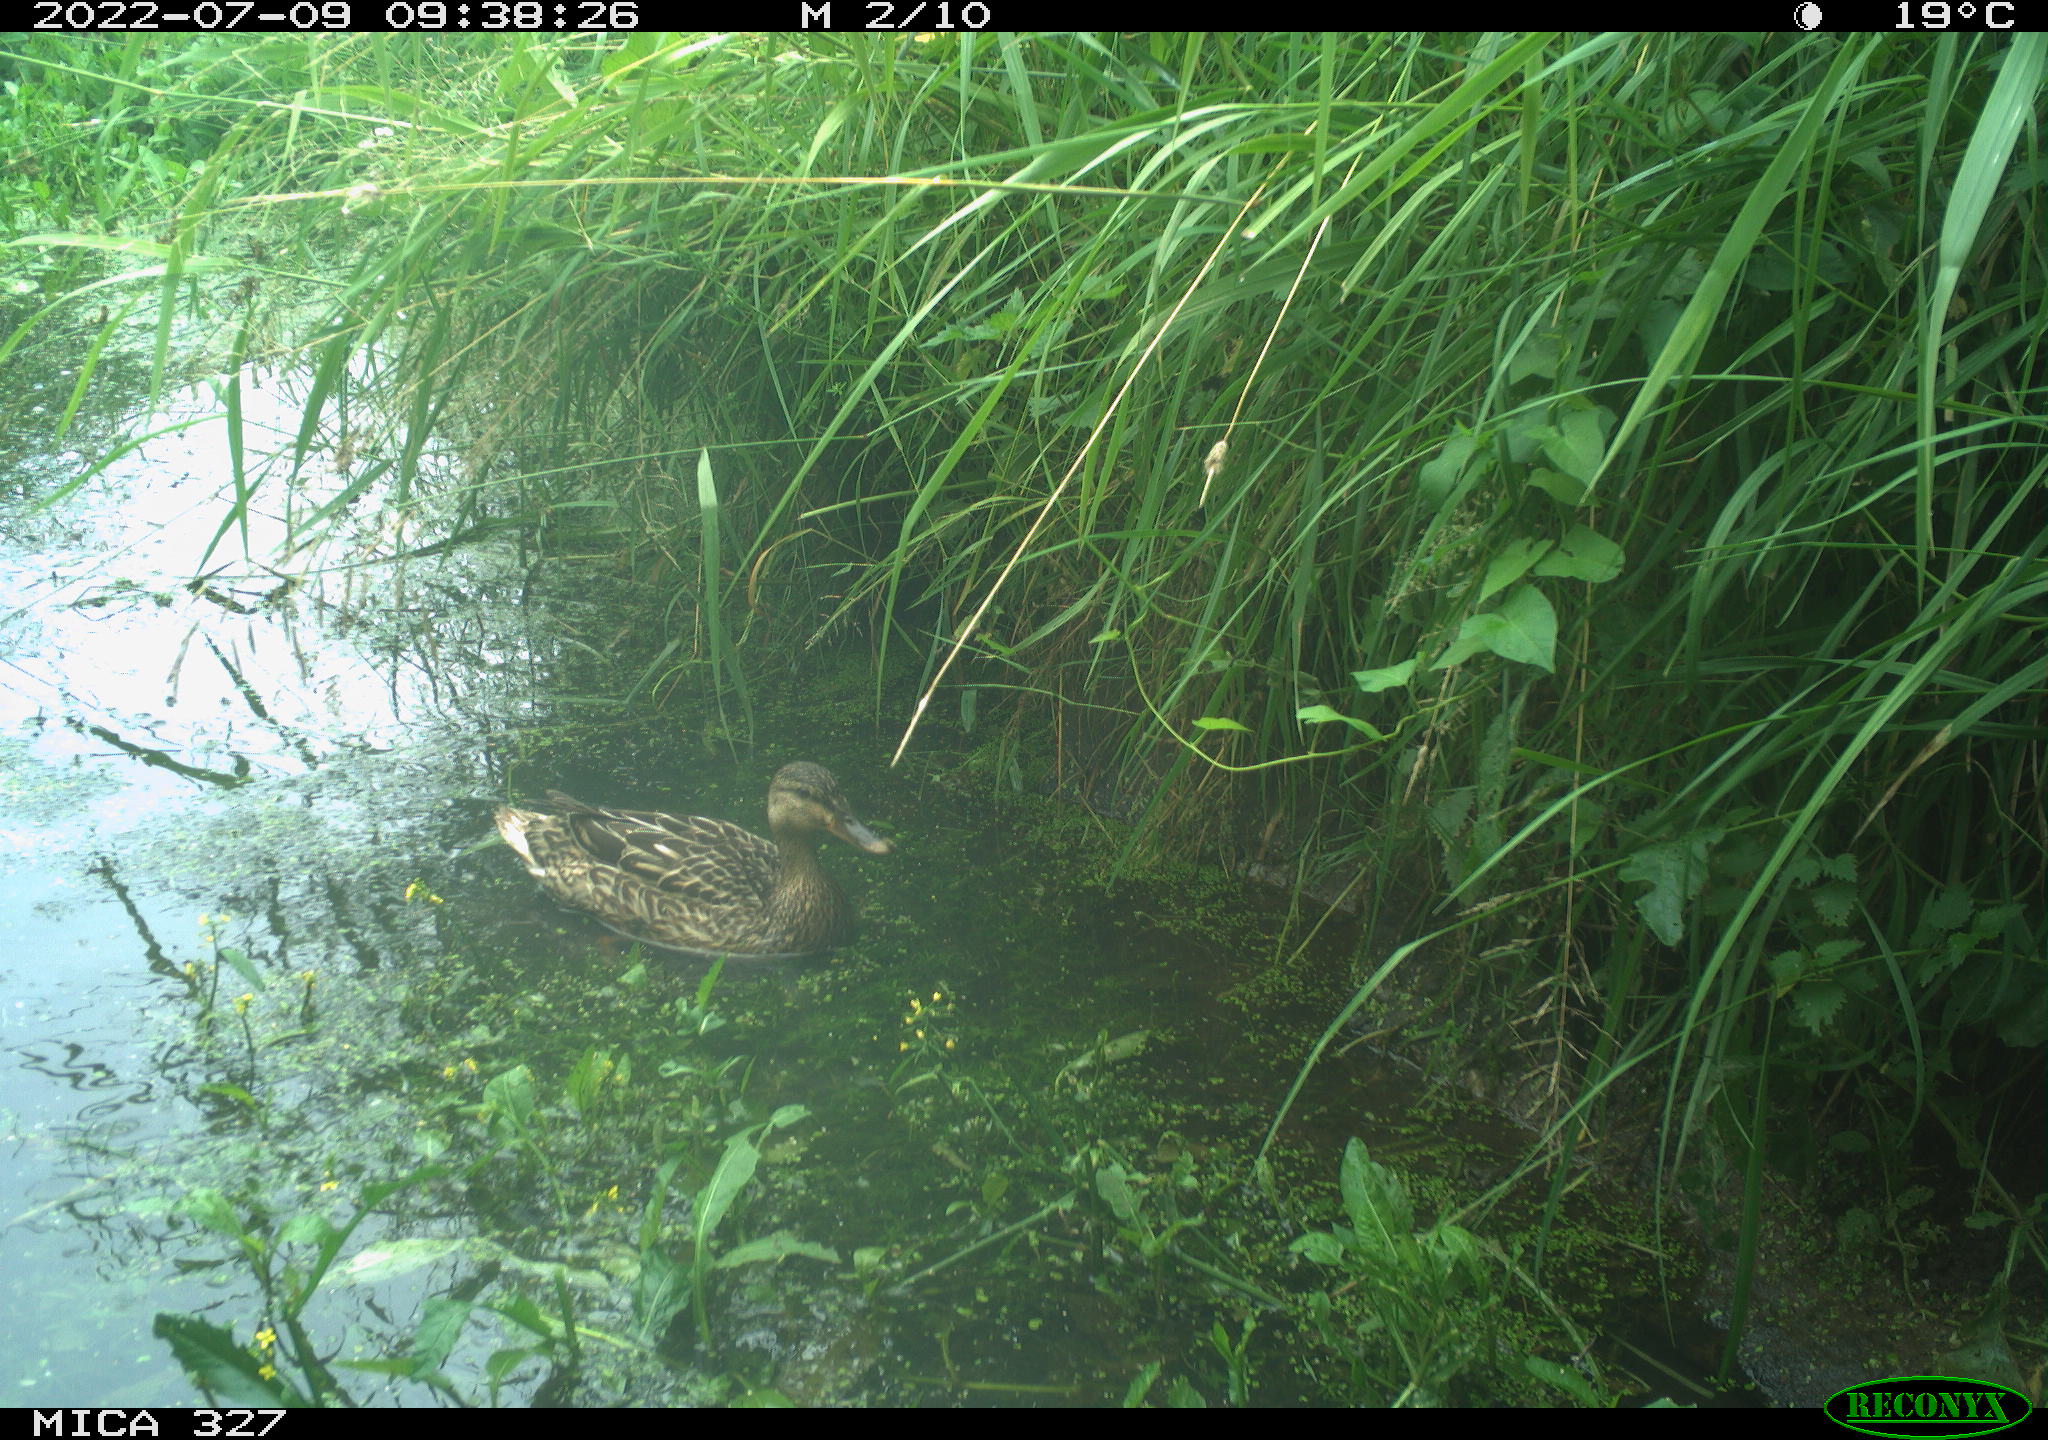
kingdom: Animalia
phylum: Chordata
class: Aves
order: Anseriformes
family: Anatidae
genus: Anas
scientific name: Anas platyrhynchos
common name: Mallard
